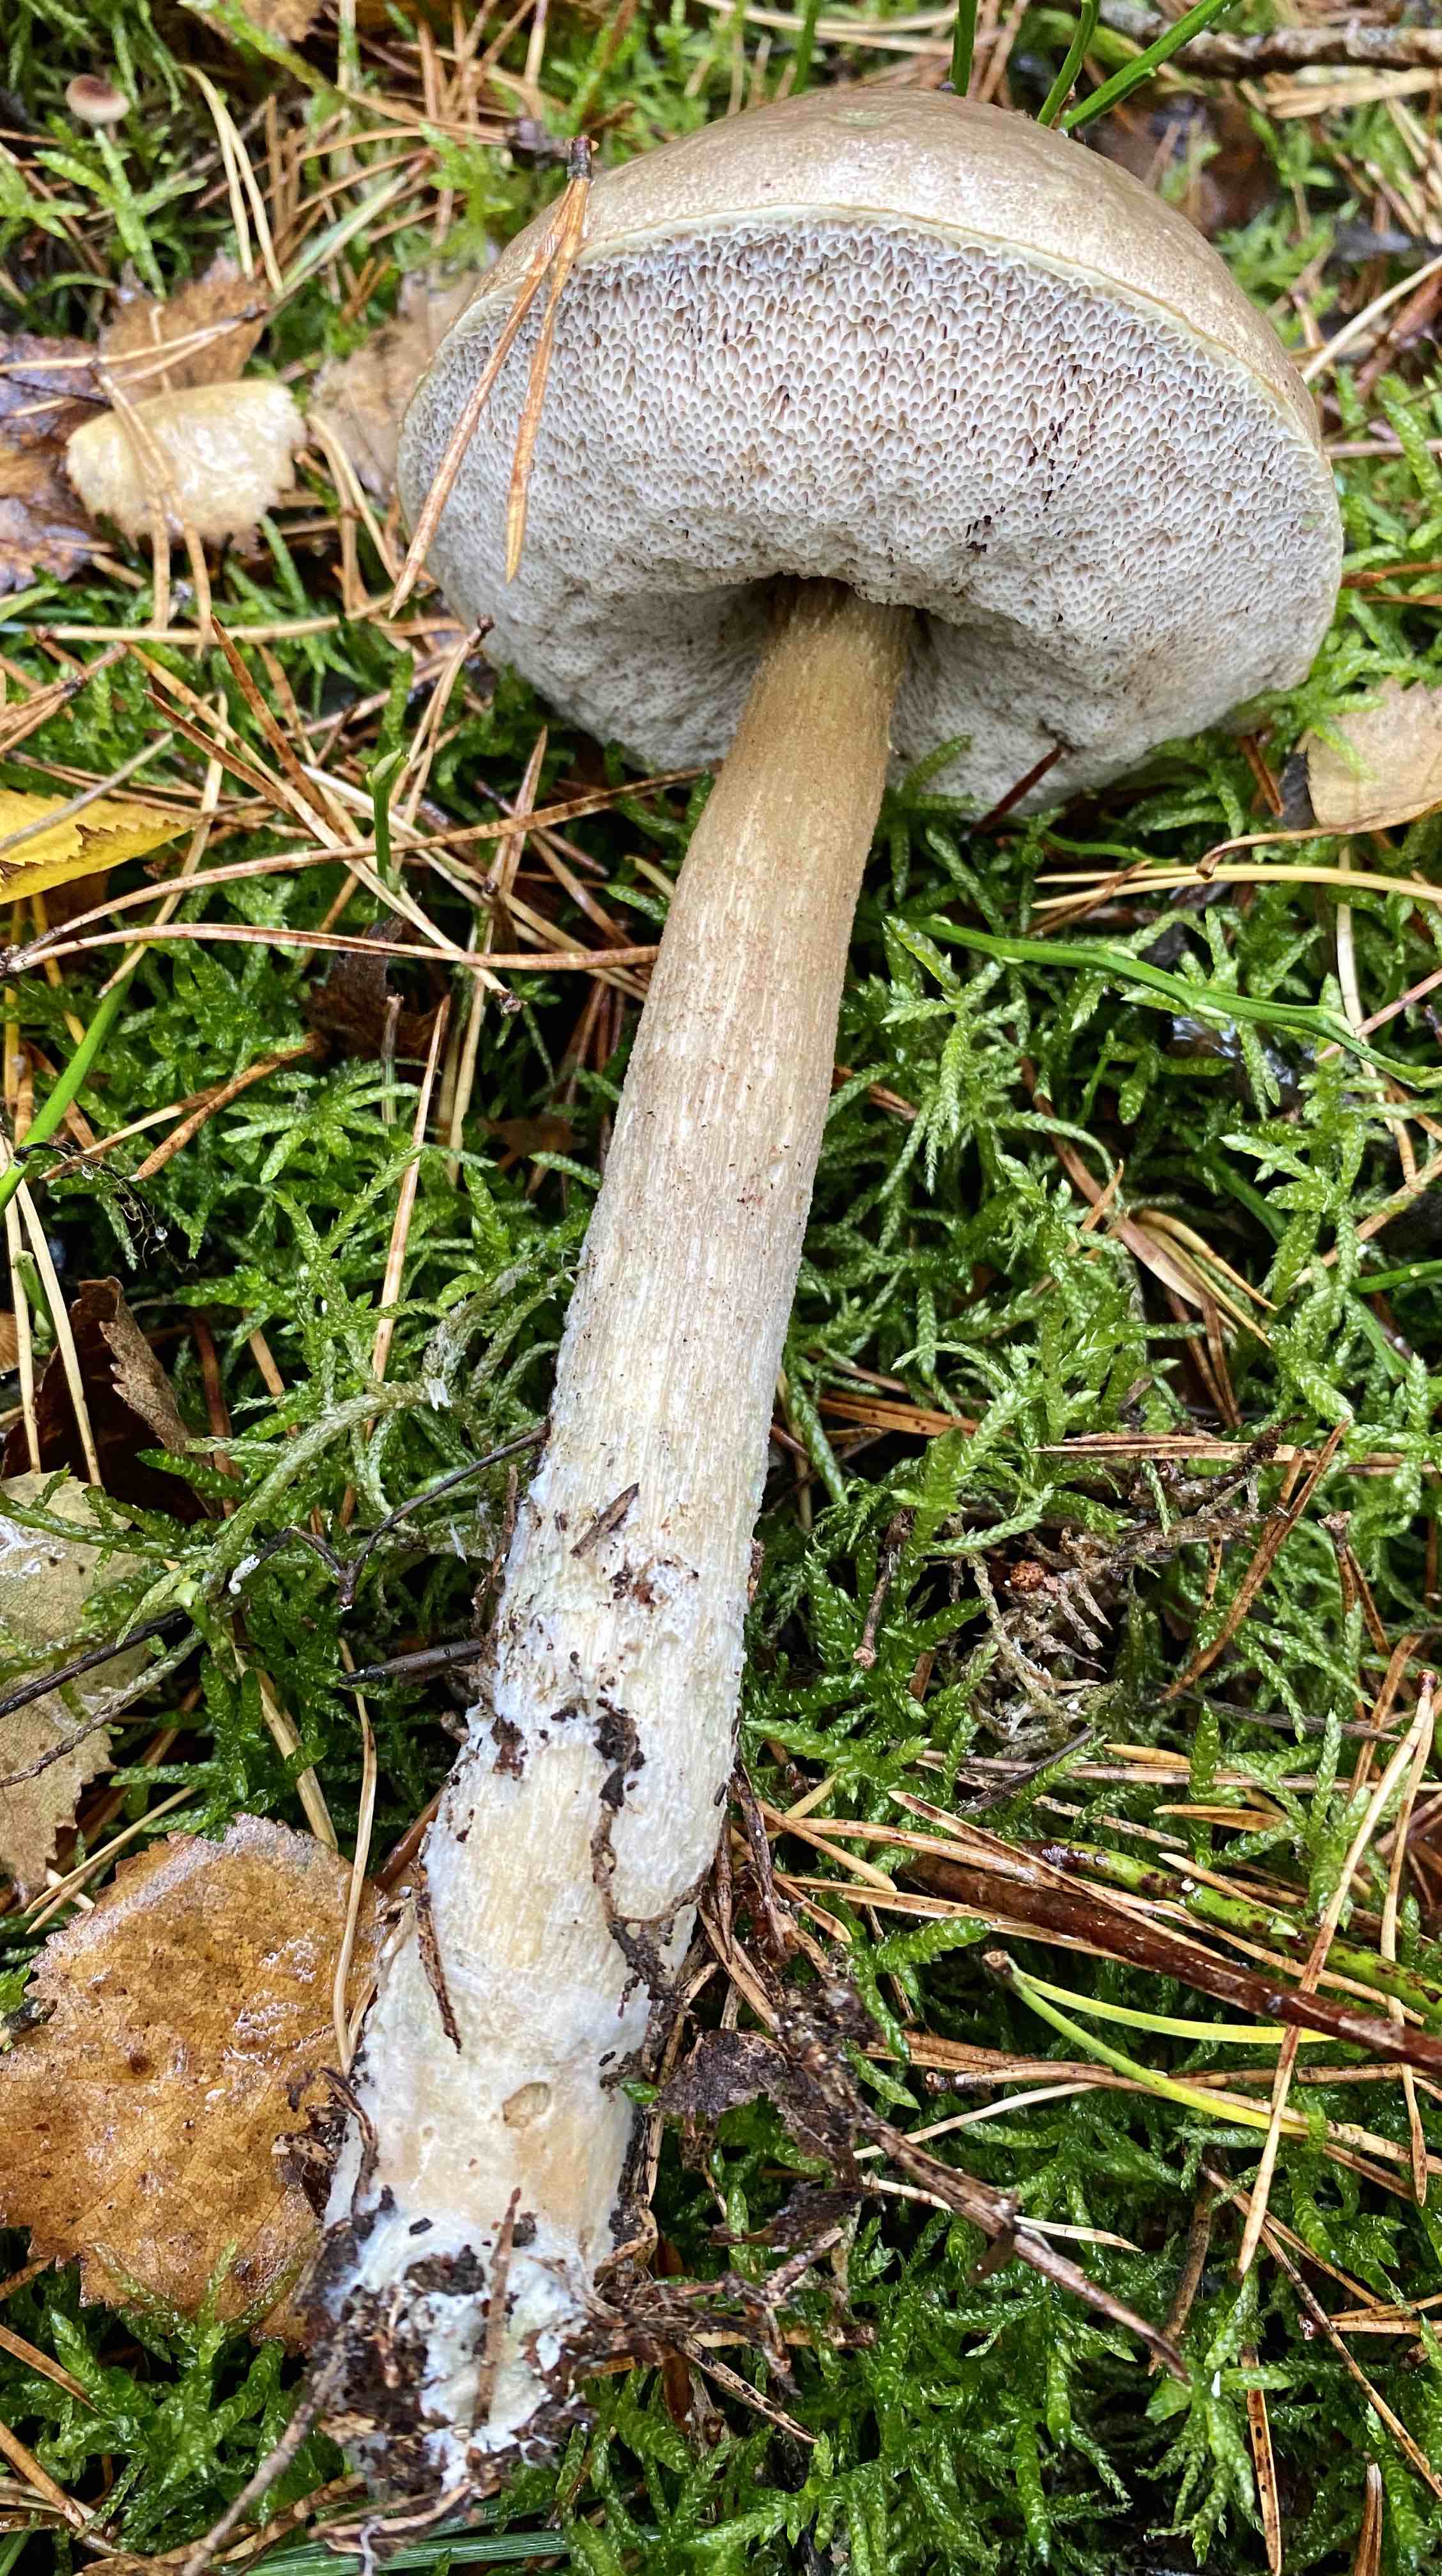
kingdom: Fungi
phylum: Basidiomycota
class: Agaricomycetes
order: Boletales
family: Boletaceae
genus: Leccinum
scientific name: Leccinum cyaneobasileucum
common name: almindelig skælrørhat
